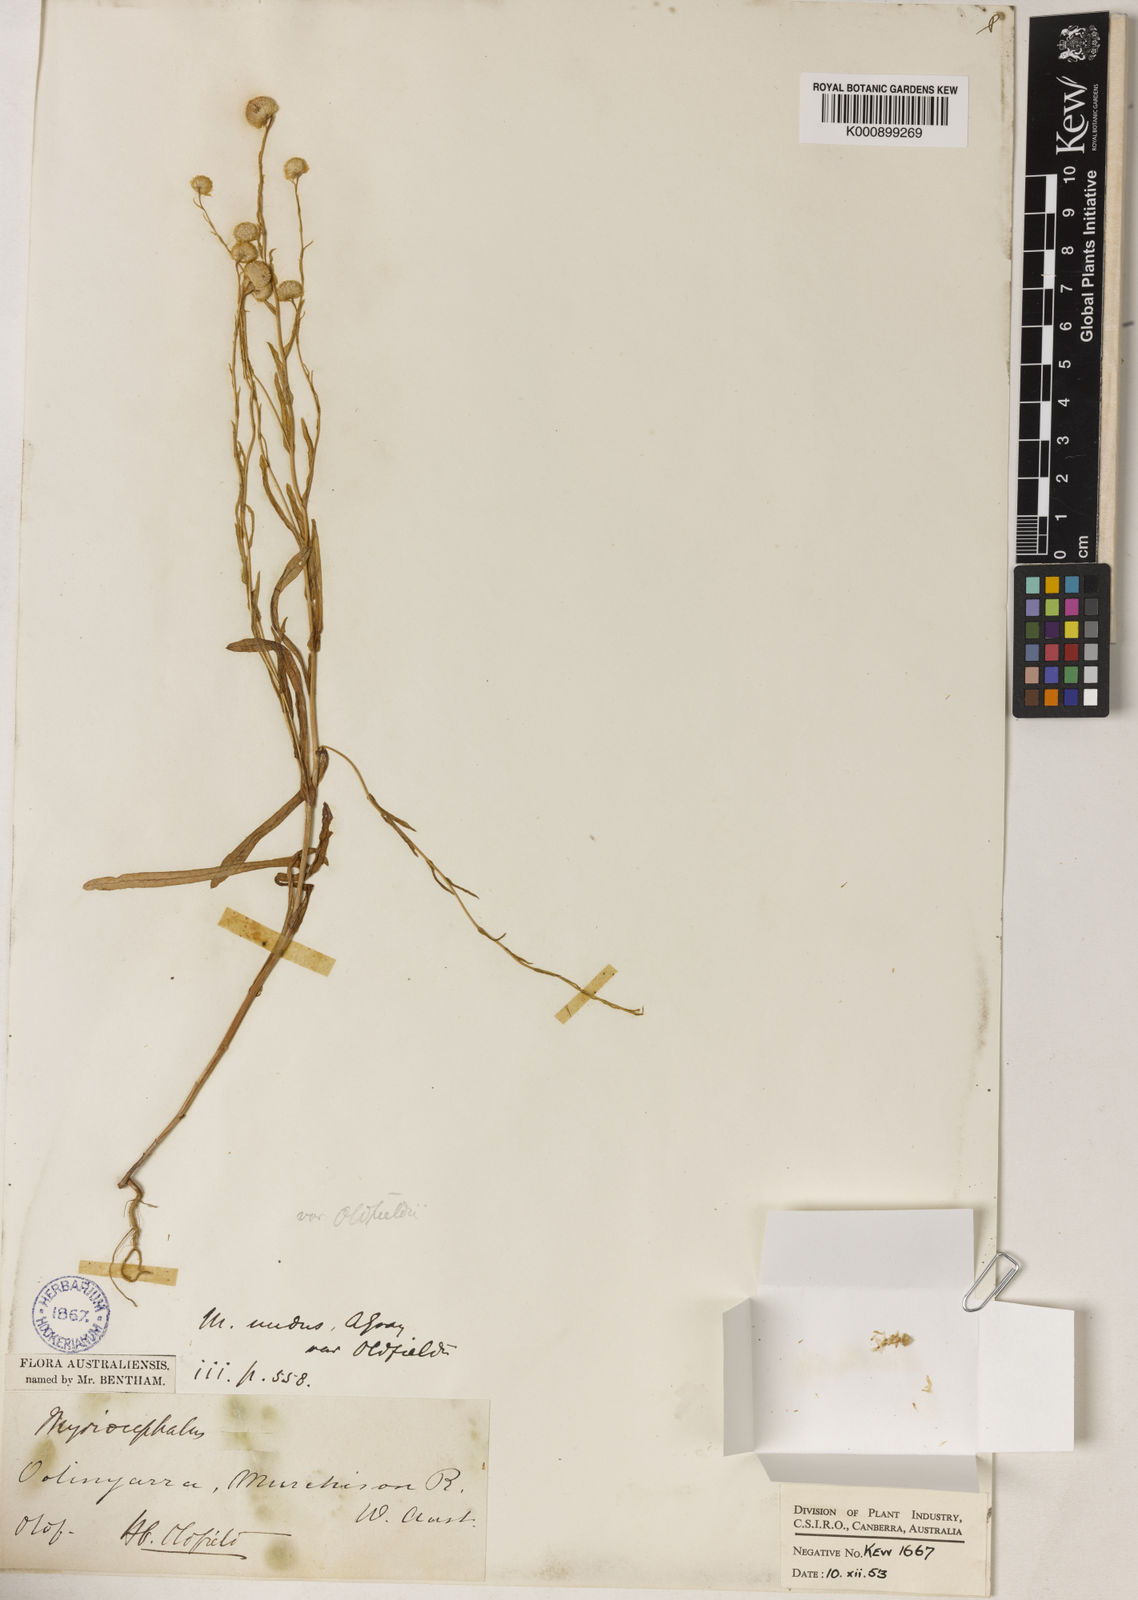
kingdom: Plantae
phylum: Tracheophyta
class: Magnoliopsida
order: Asterales
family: Asteraceae
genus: Myriocephalus
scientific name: Myriocephalus oldfieldii
